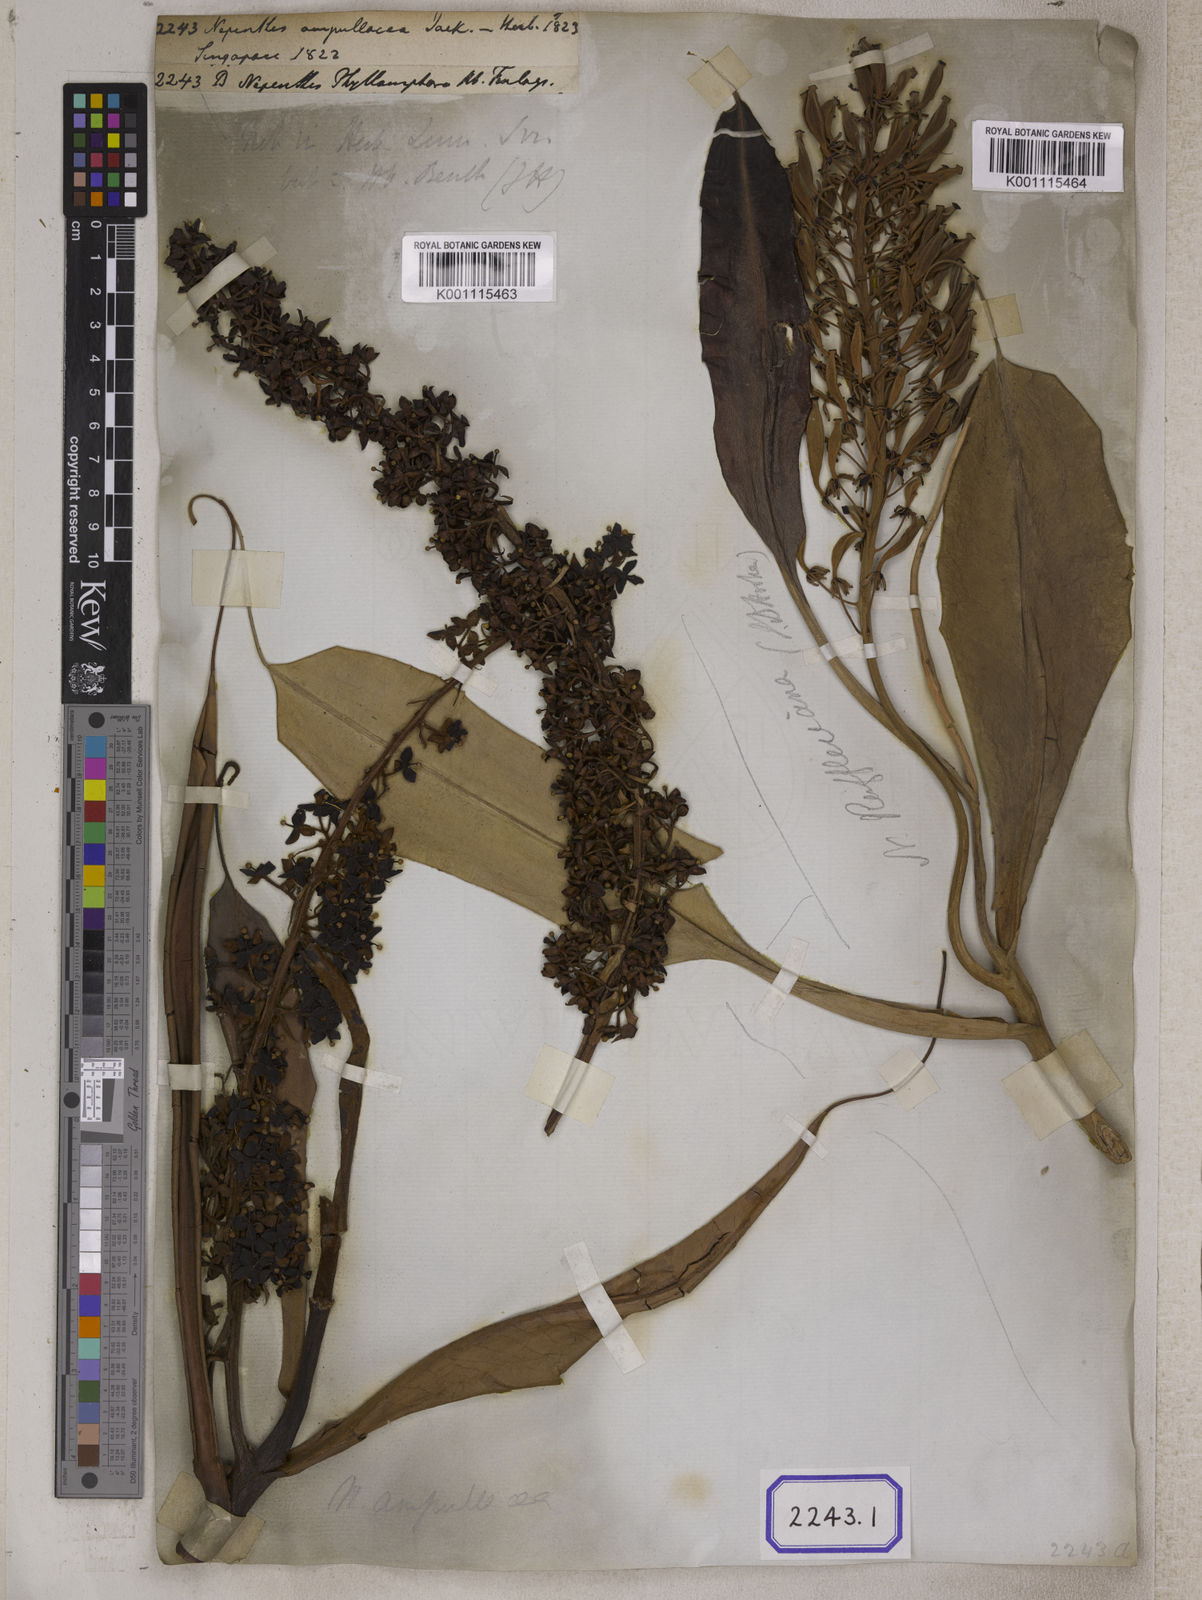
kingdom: Plantae
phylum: Tracheophyta
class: Magnoliopsida
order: Caryophyllales
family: Nepenthaceae
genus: Nepenthes
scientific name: Nepenthes ampullaria
